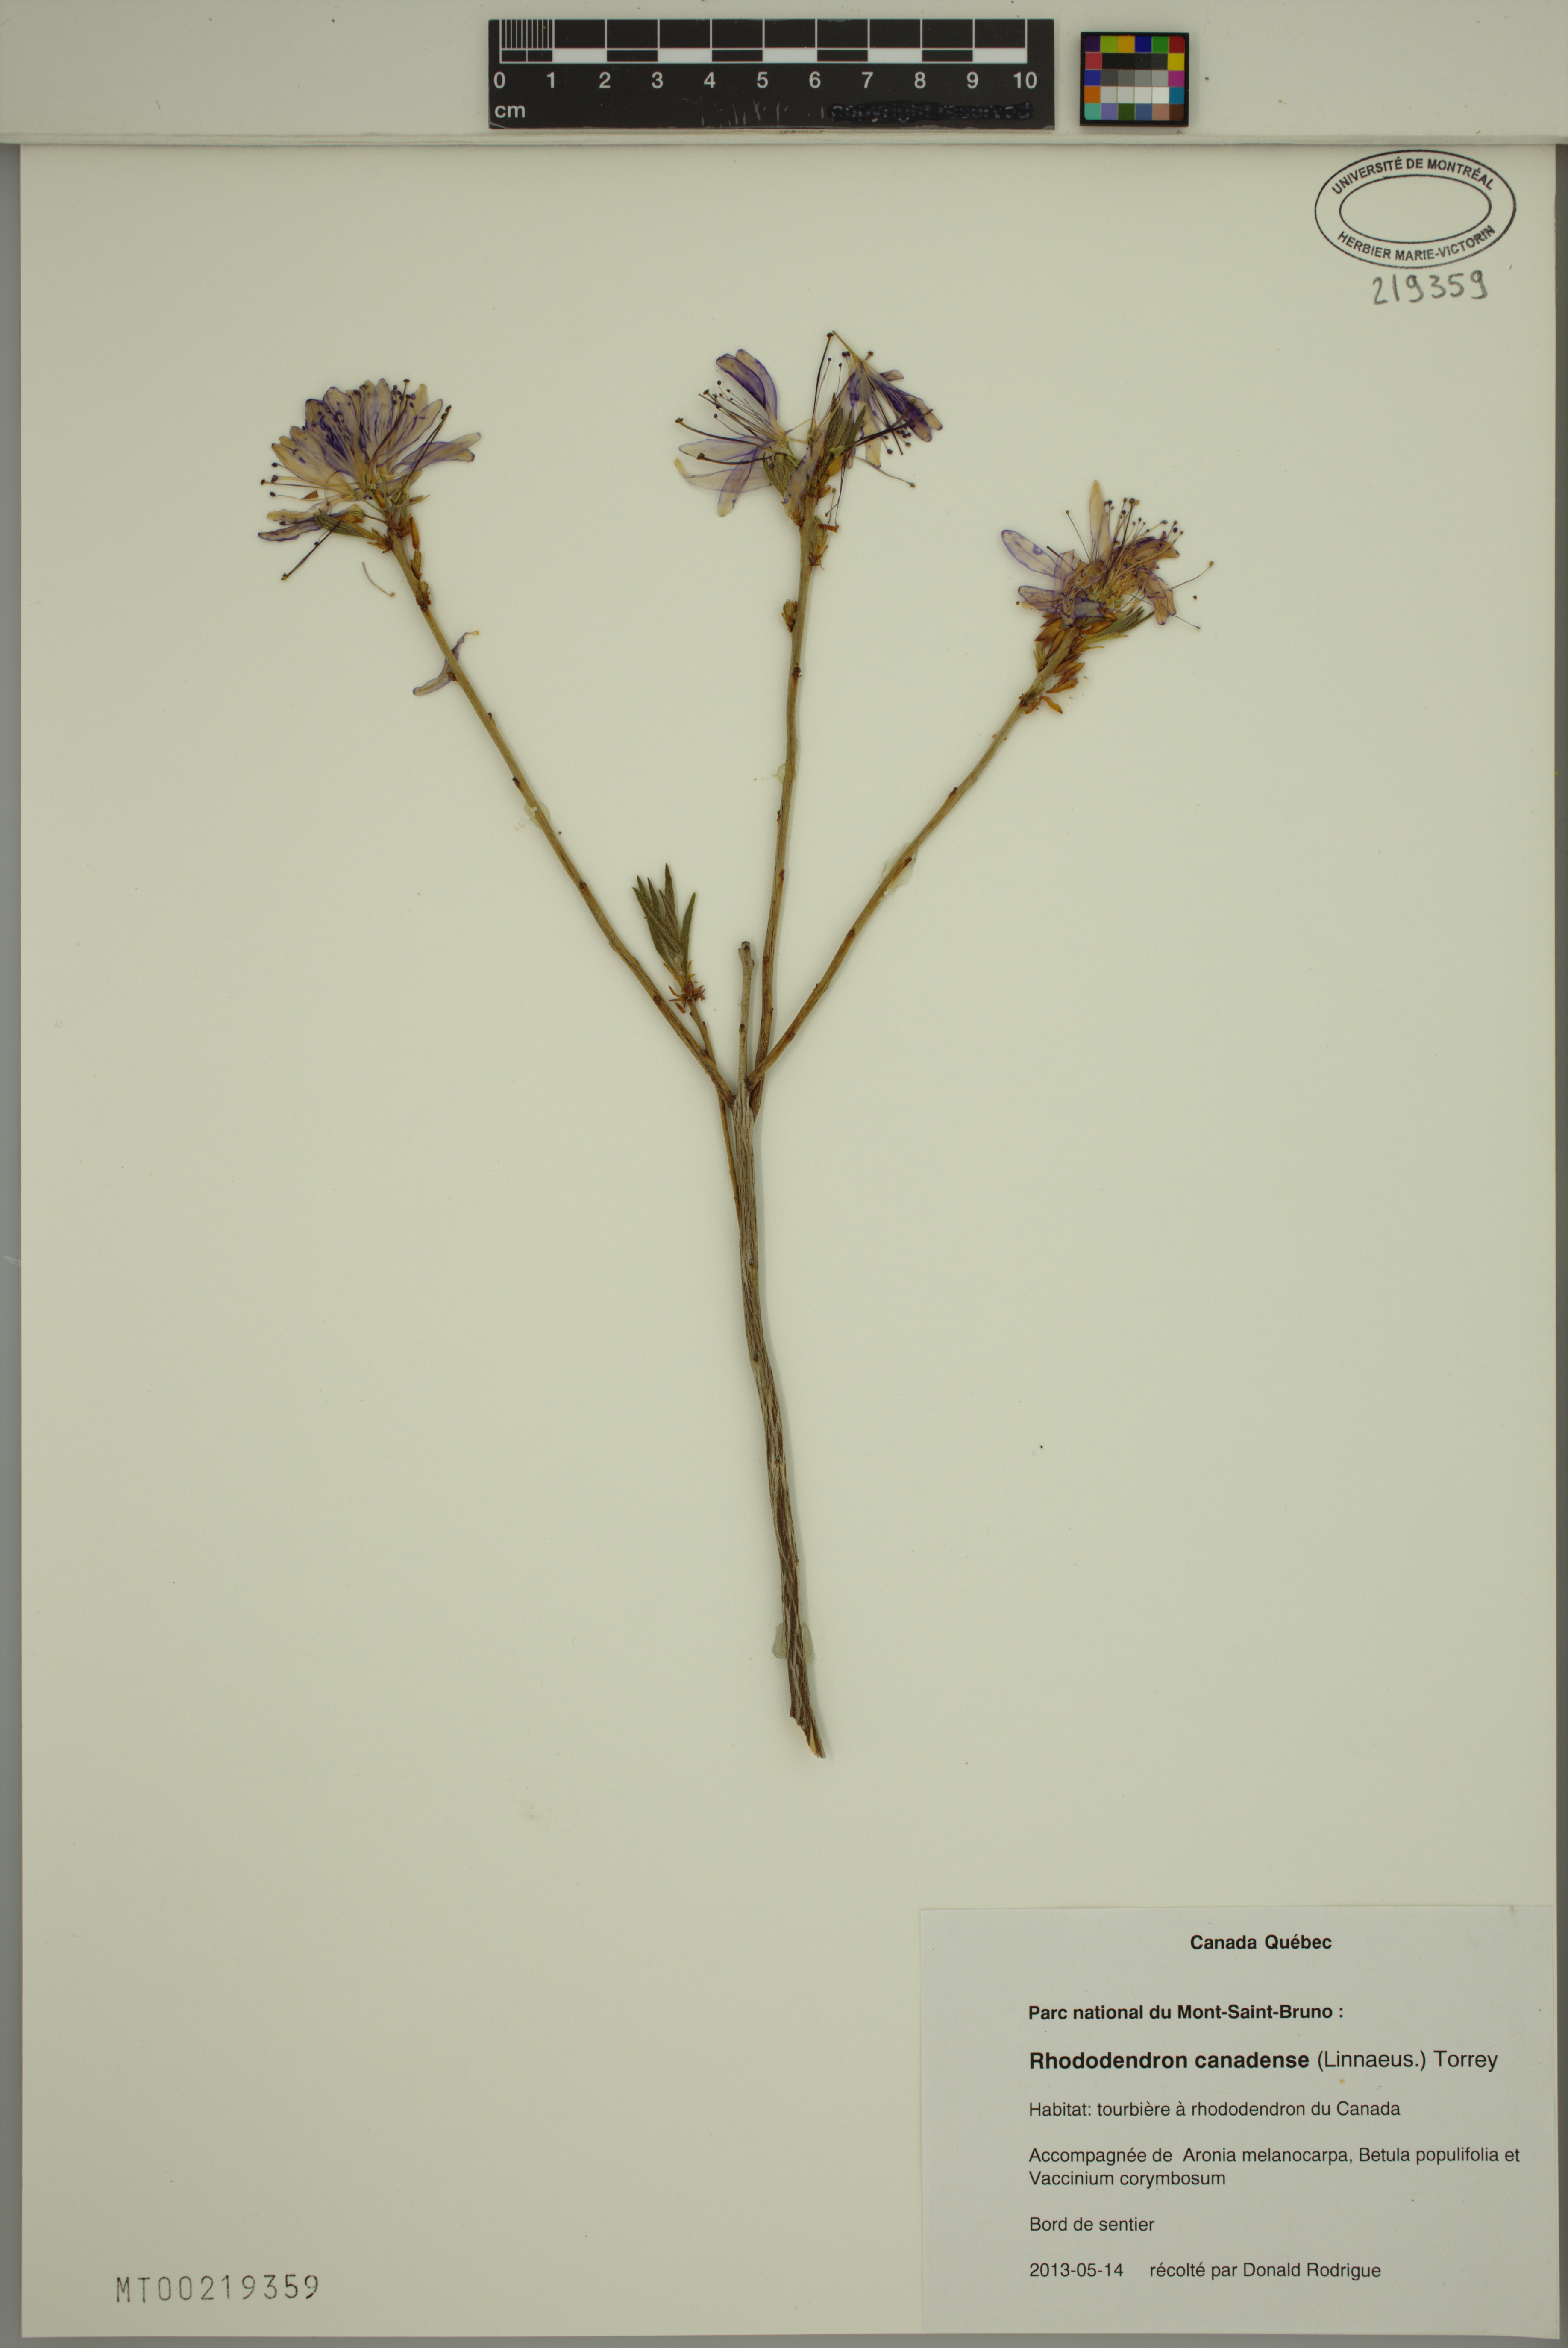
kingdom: Plantae
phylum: Tracheophyta
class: Magnoliopsida
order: Ericales
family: Ericaceae
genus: Rhododendron
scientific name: Rhododendron canadense
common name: Rhodora
